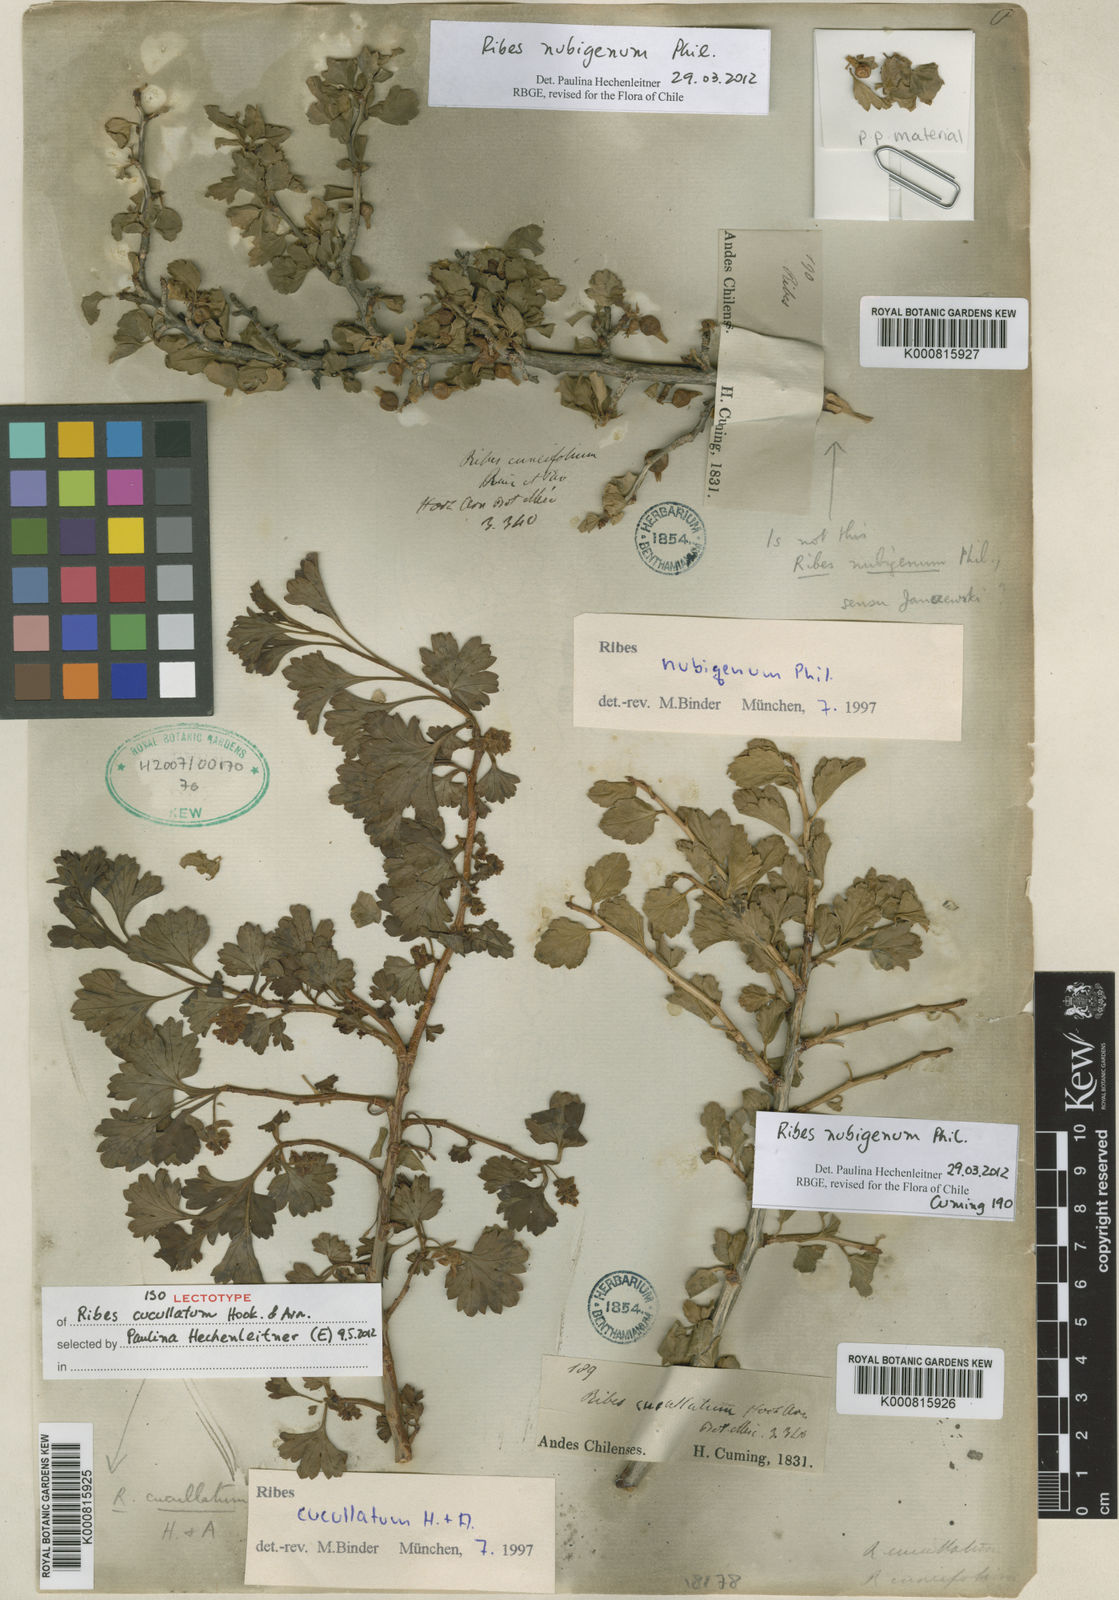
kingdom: Plantae
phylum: Tracheophyta
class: Magnoliopsida
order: Saxifragales
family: Grossulariaceae
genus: Ribes
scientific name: Ribes cucullatum
